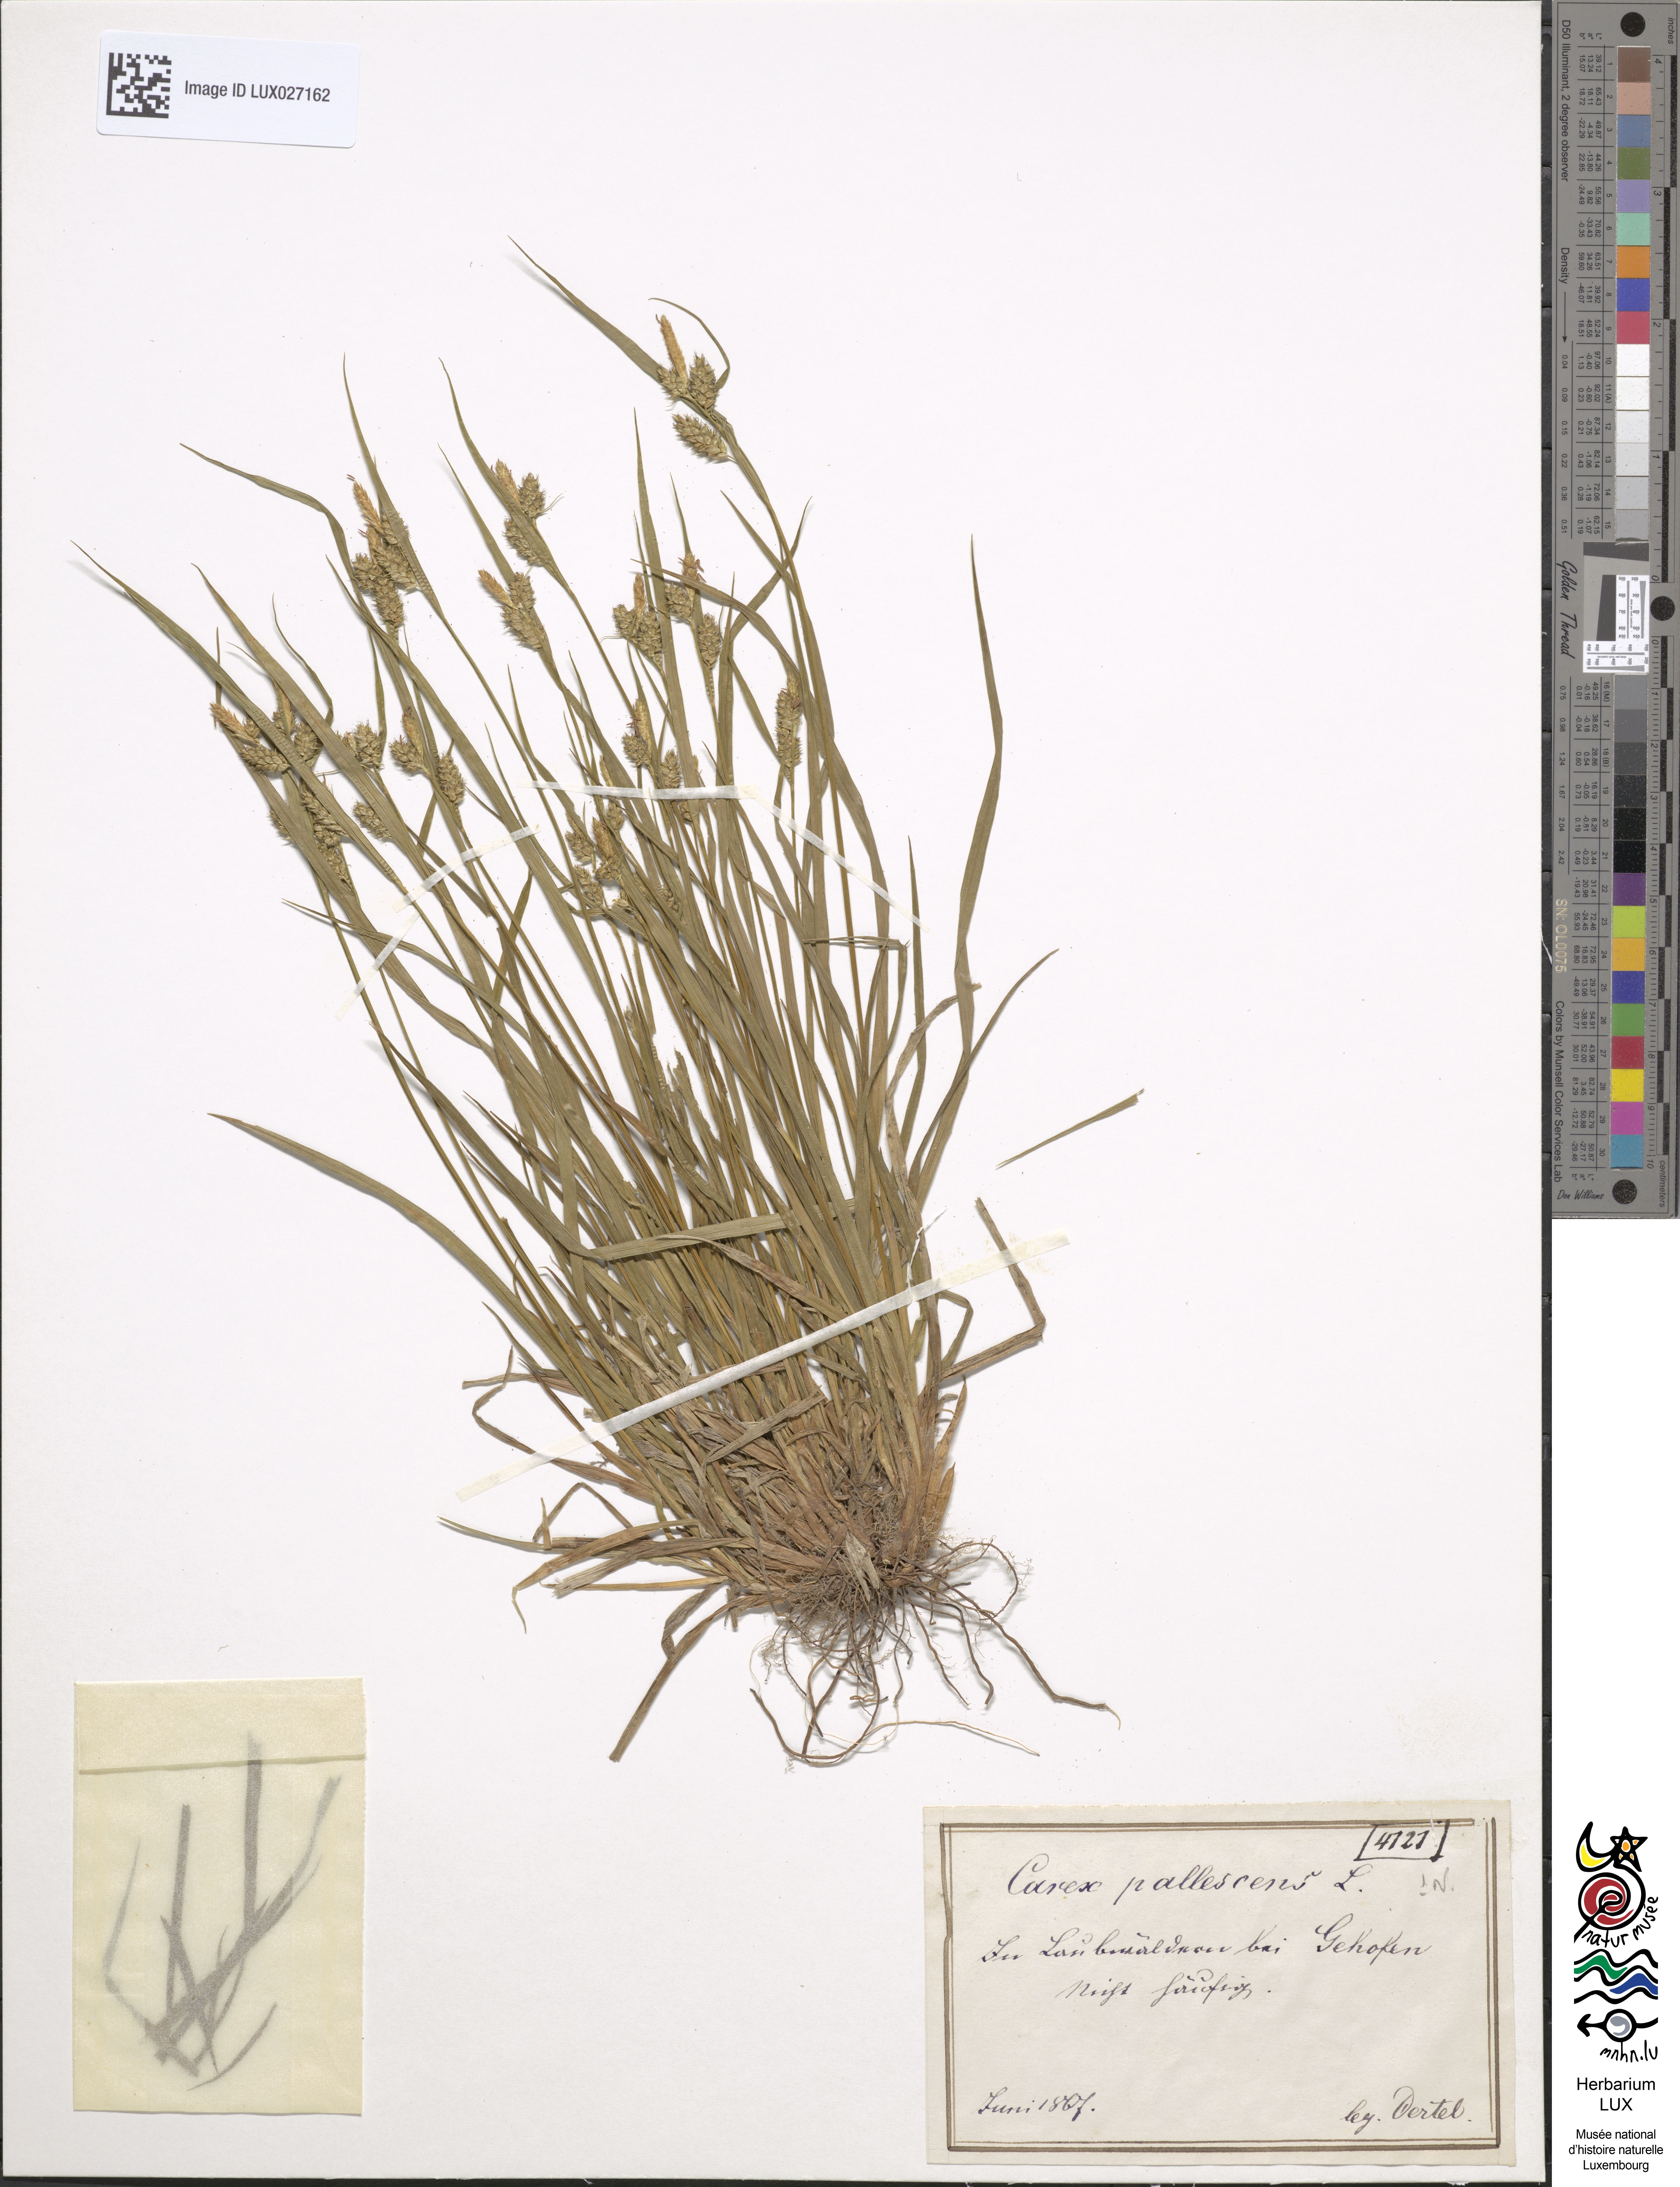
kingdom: Plantae
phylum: Tracheophyta
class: Liliopsida
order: Poales
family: Cyperaceae
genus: Carex
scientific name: Carex pallescens
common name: Pale sedge
